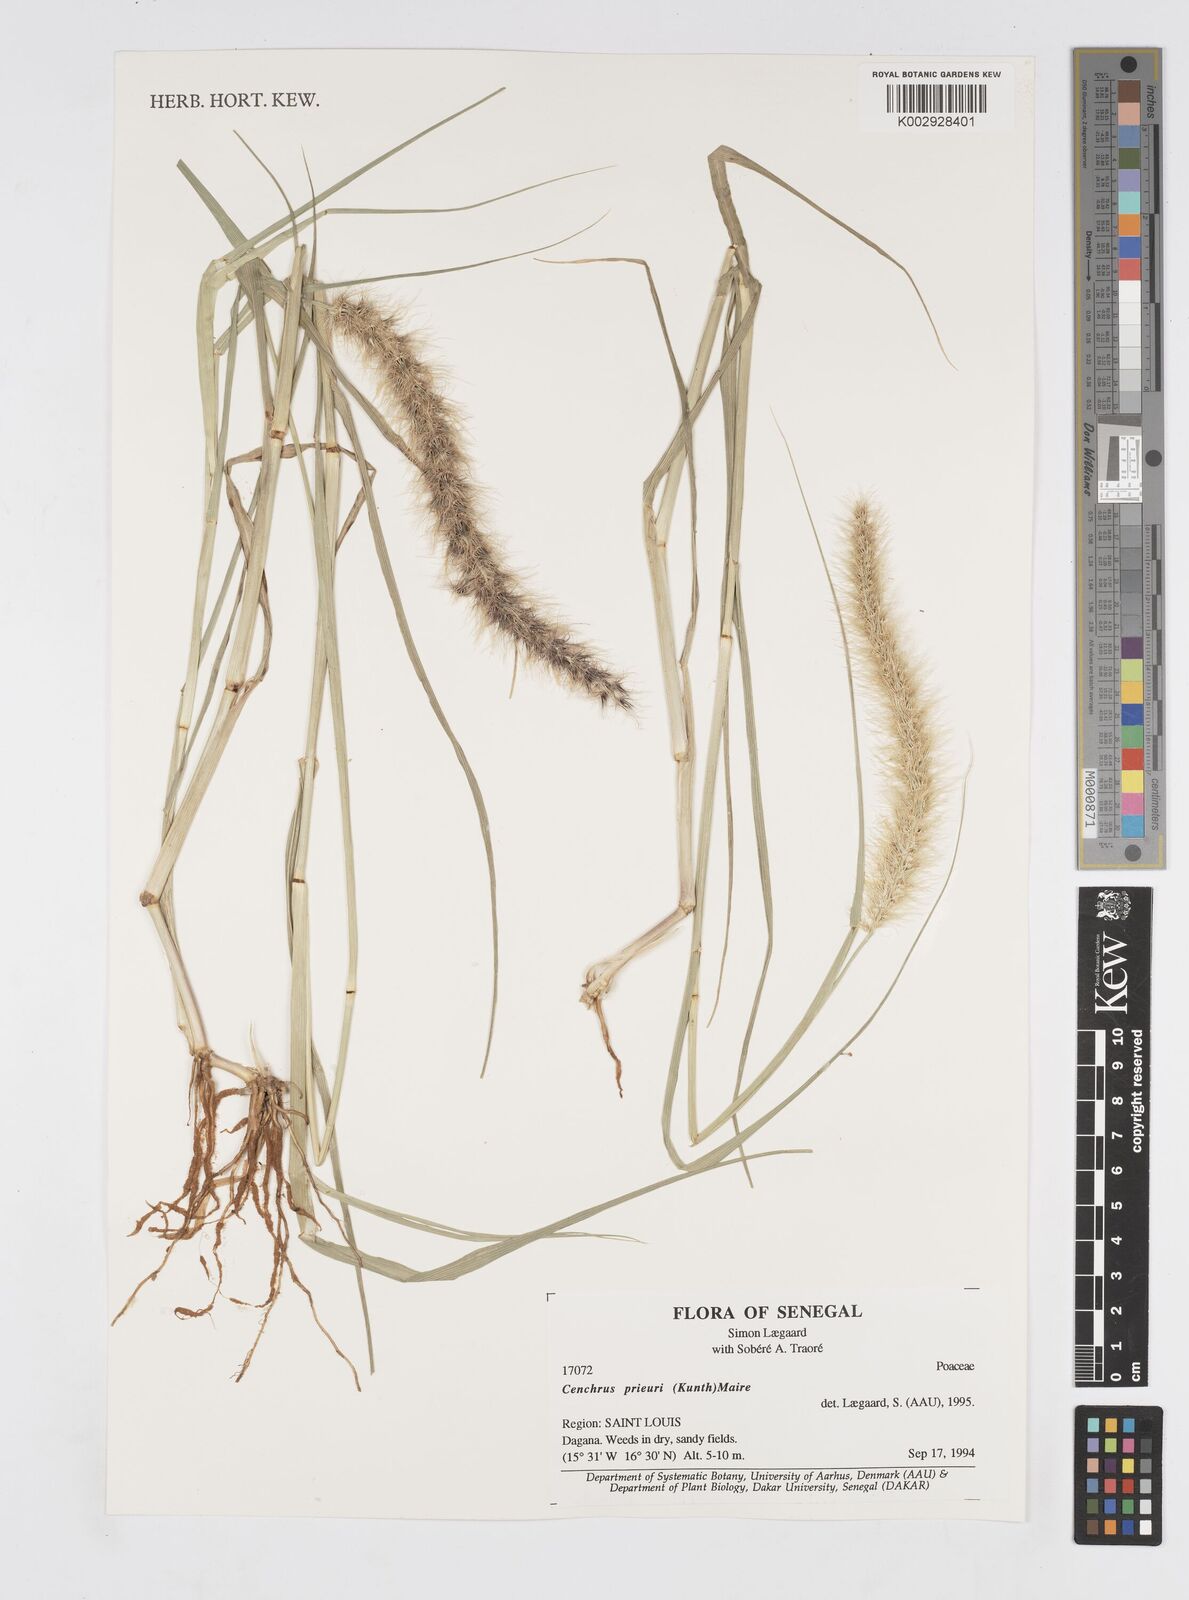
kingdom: Plantae
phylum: Tracheophyta
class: Liliopsida
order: Poales
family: Poaceae
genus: Cenchrus
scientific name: Cenchrus prieurii
